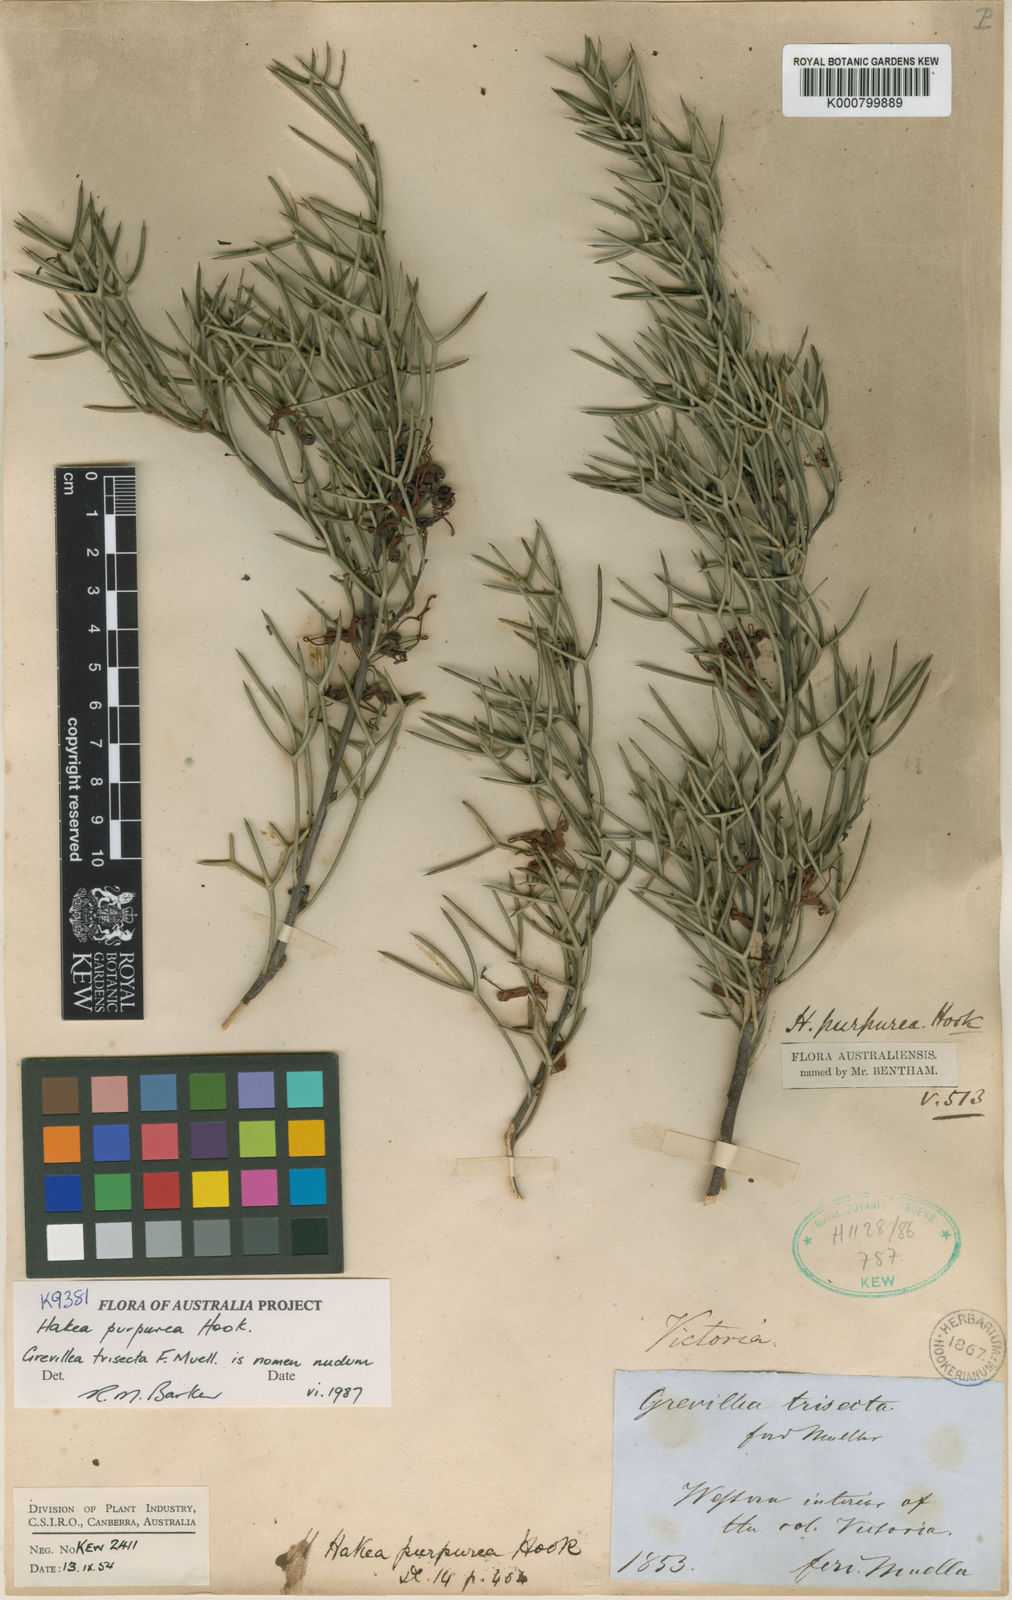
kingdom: Plantae
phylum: Tracheophyta
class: Magnoliopsida
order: Proteales
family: Proteaceae
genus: Hakea
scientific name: Hakea purpurea
